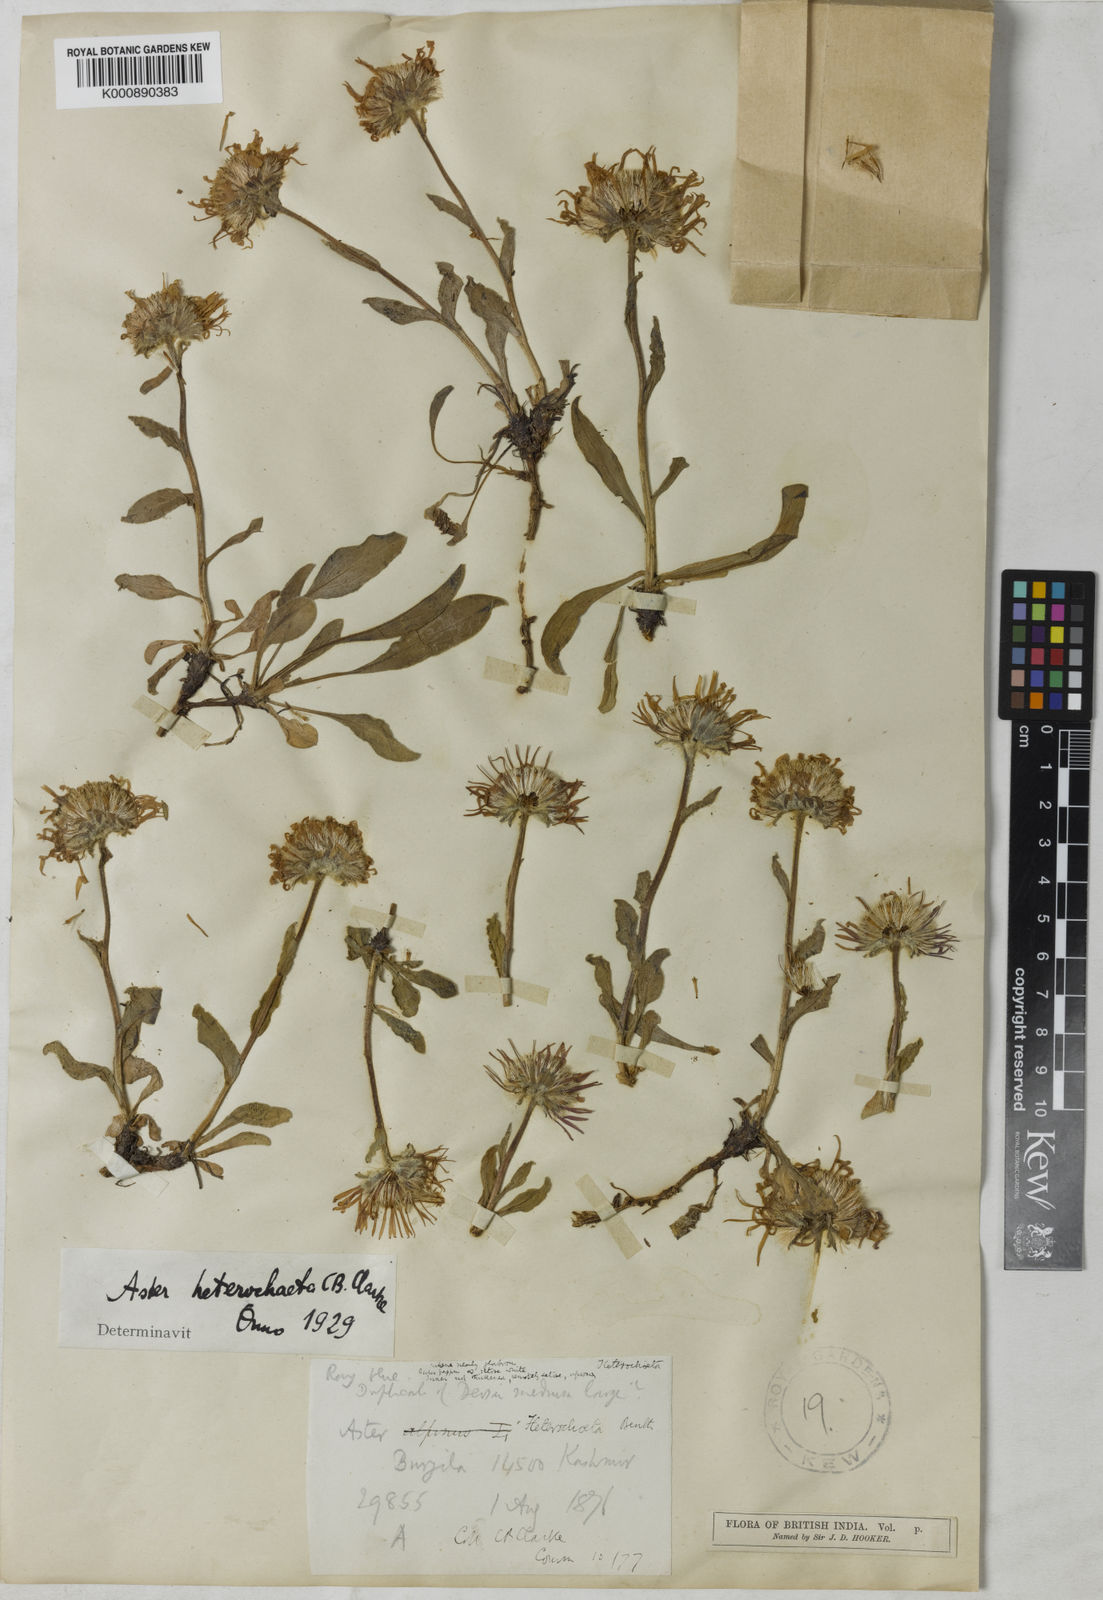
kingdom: Plantae
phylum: Tracheophyta
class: Magnoliopsida
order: Asterales
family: Asteraceae
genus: Tibetiodes
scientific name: Tibetiodes flaccida
